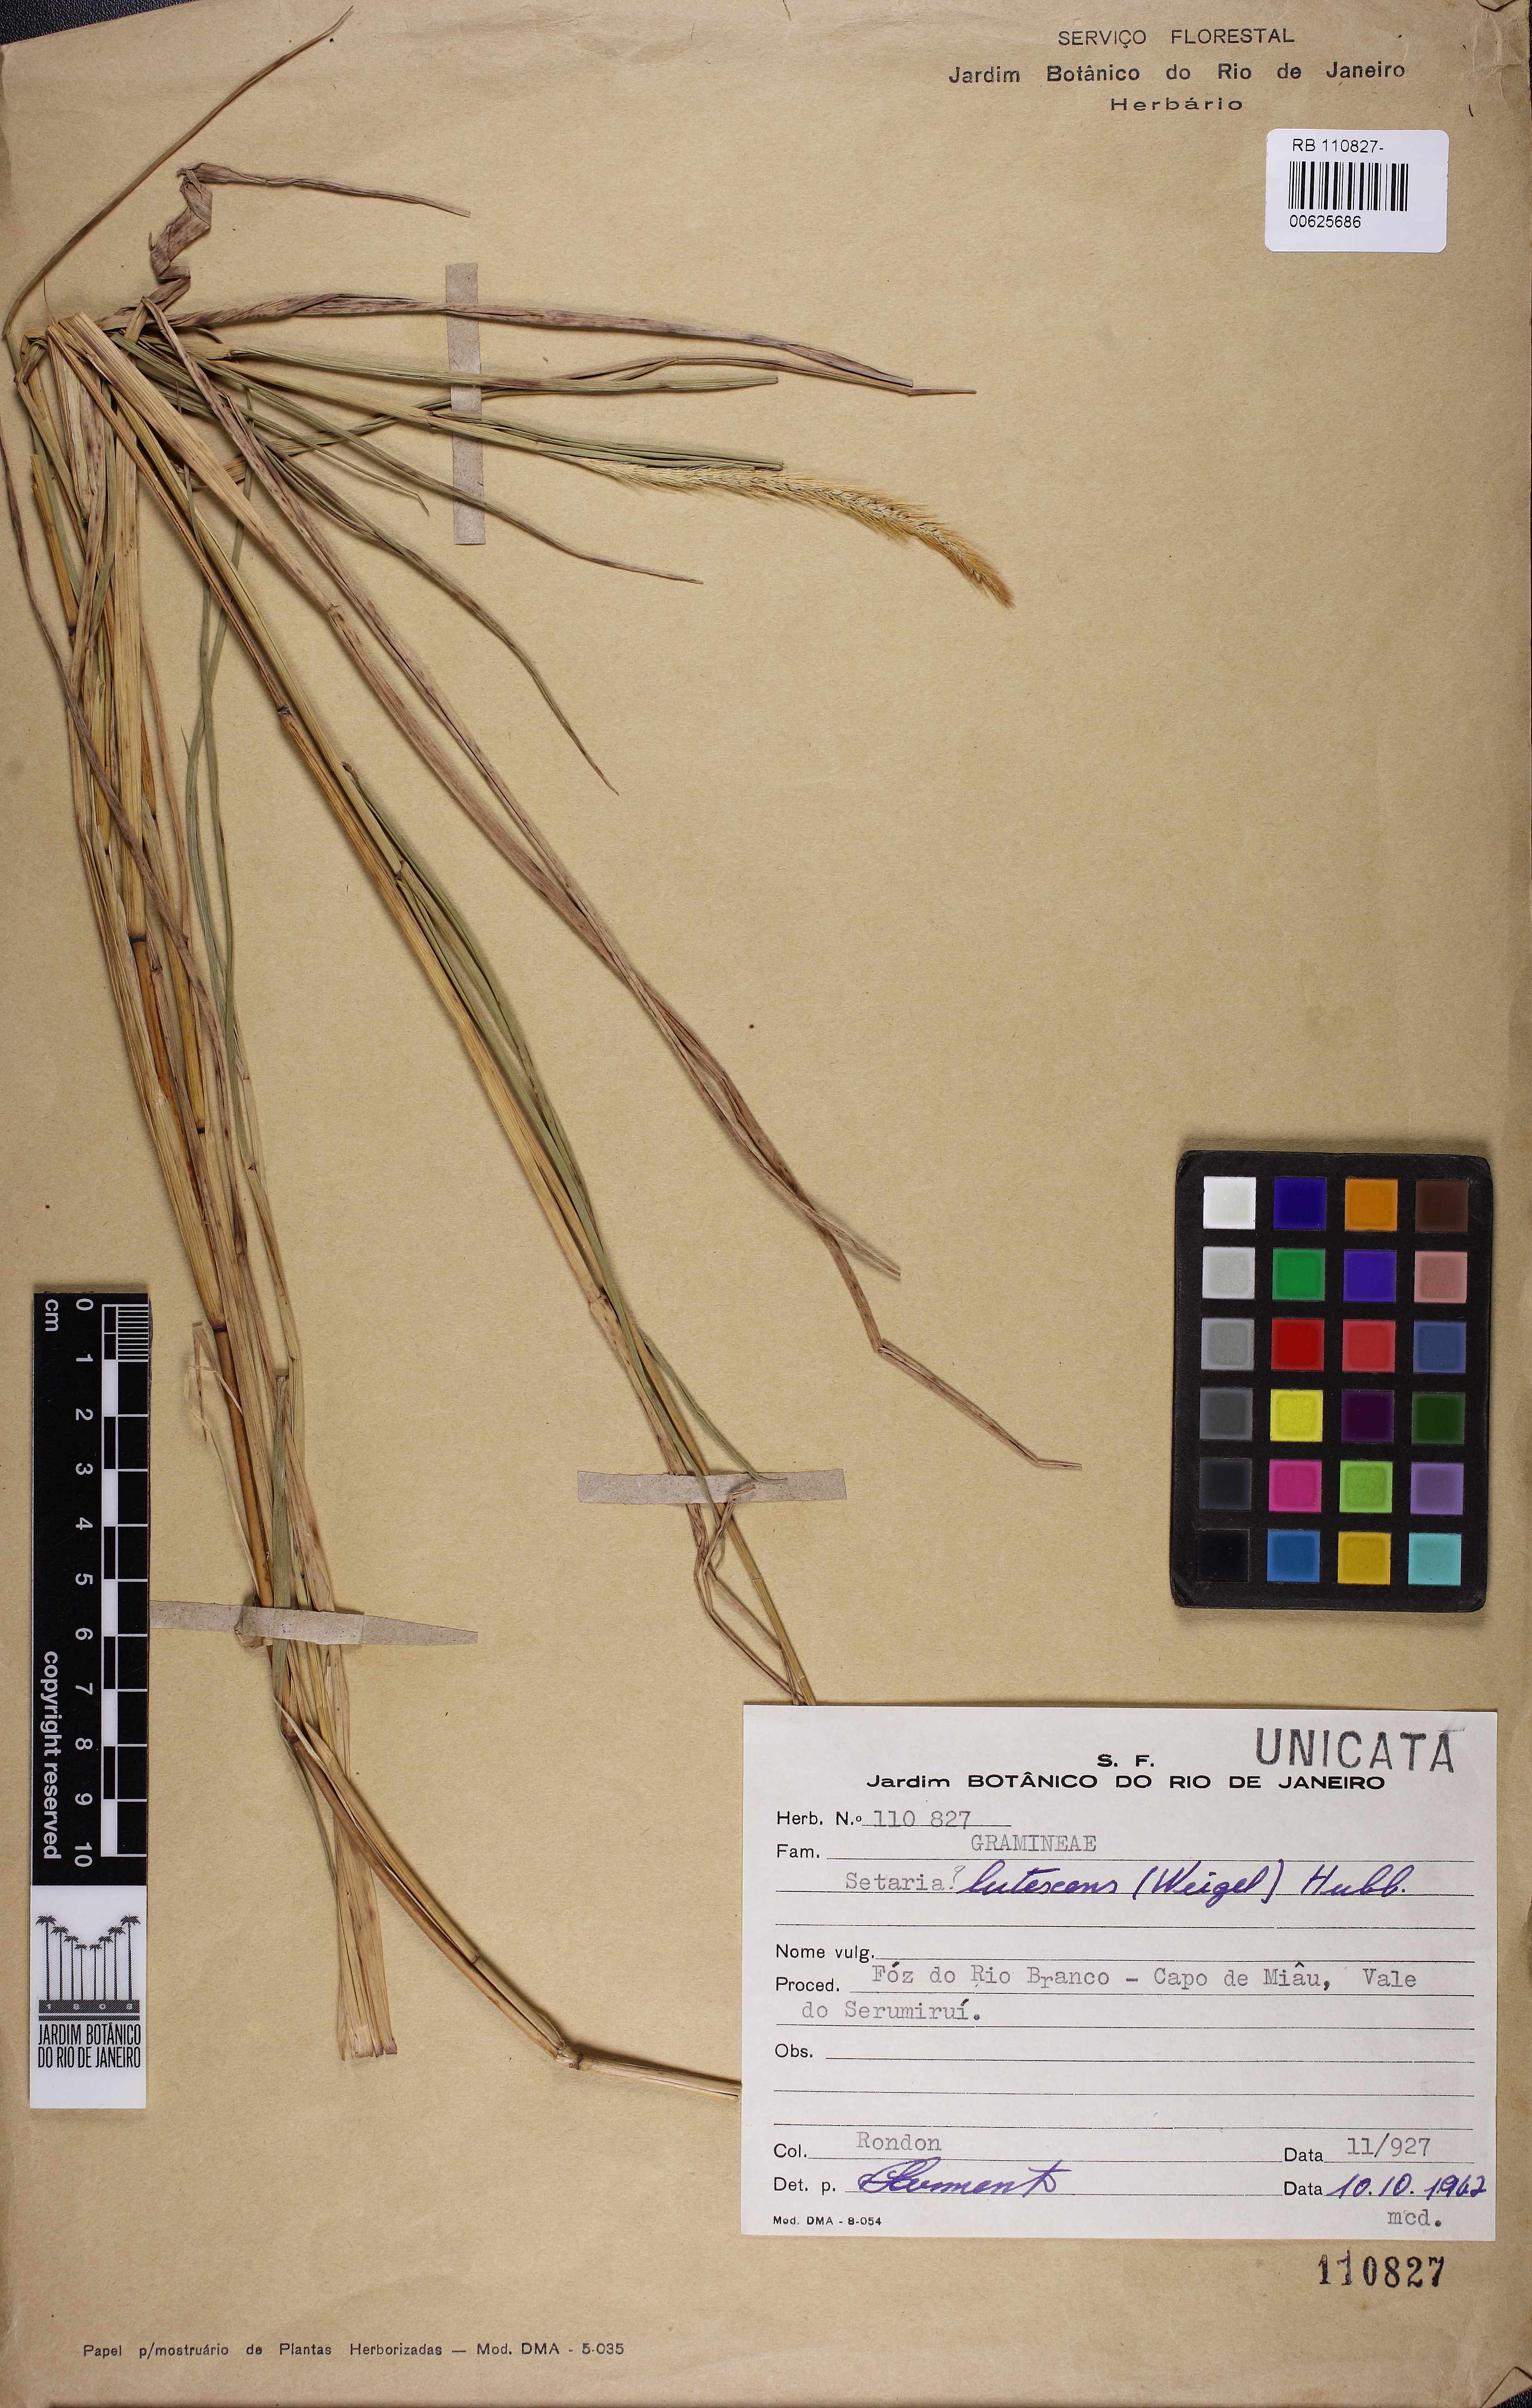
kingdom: Plantae
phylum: Tracheophyta
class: Liliopsida
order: Poales
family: Poaceae
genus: Cenchrus
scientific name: Cenchrus americanus
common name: Pearl millet
